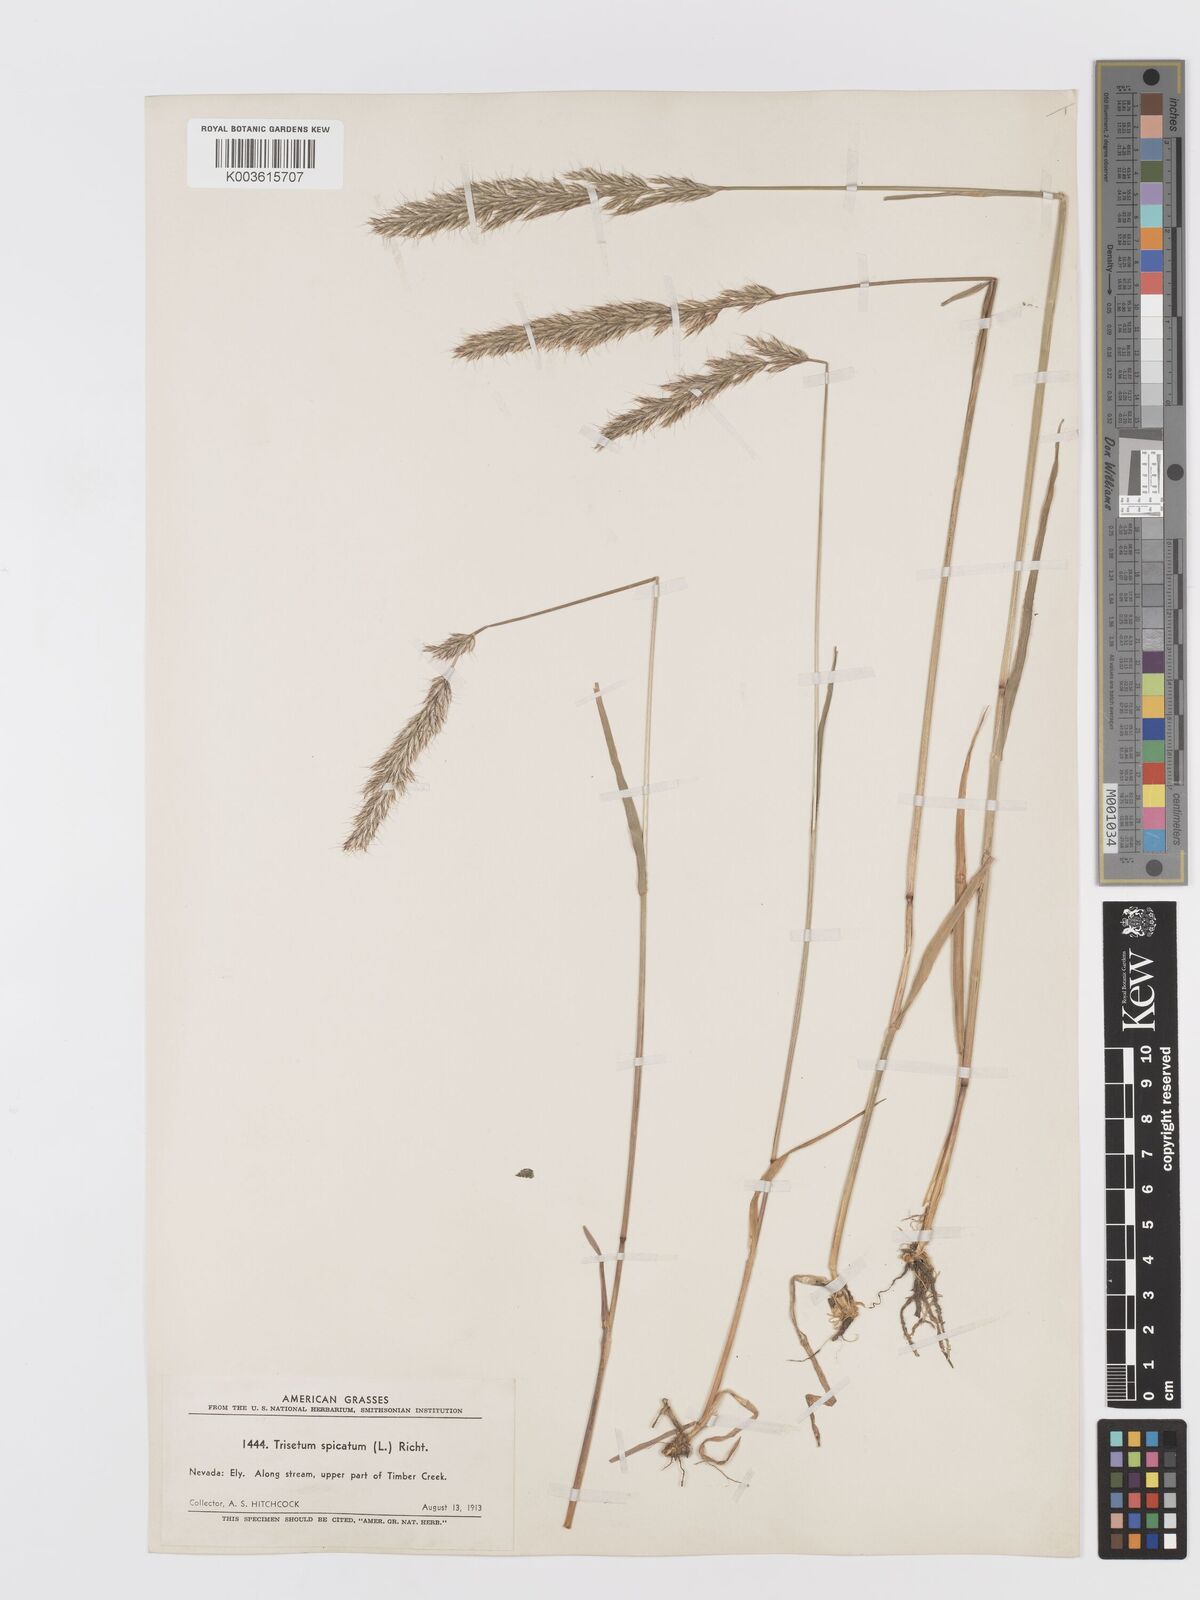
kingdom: Plantae
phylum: Tracheophyta
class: Liliopsida
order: Poales
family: Poaceae
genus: Koeleria
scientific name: Koeleria spicata
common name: Mountain trisetum
